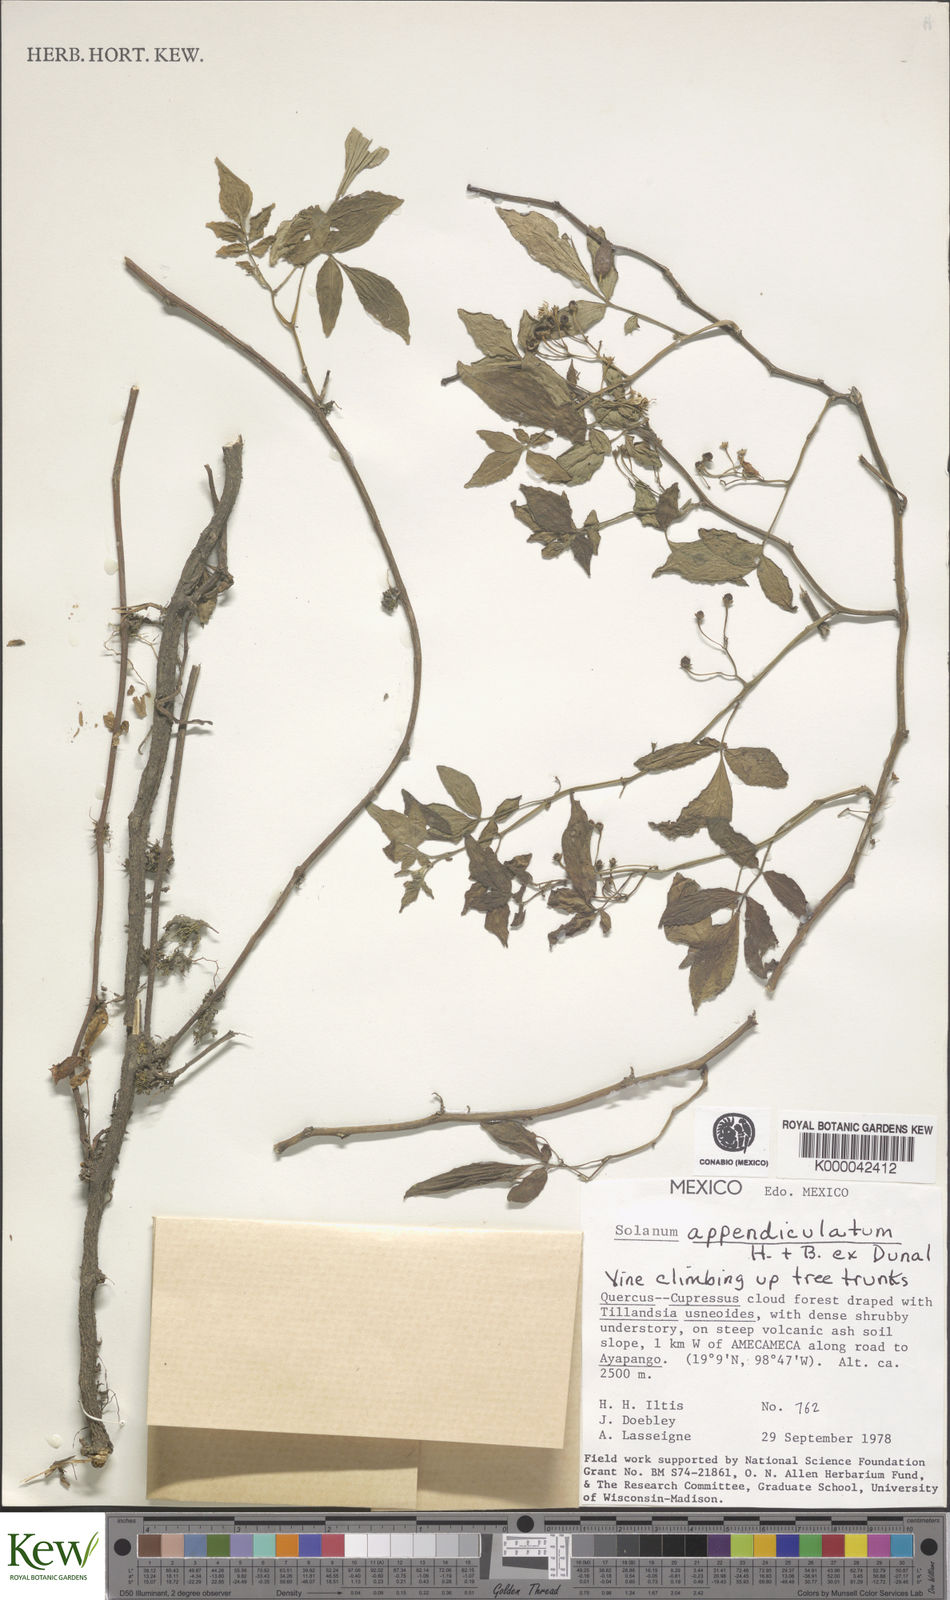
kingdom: Plantae
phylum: Tracheophyta
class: Magnoliopsida
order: Solanales
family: Solanaceae
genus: Solanum
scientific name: Solanum appendiculatum
